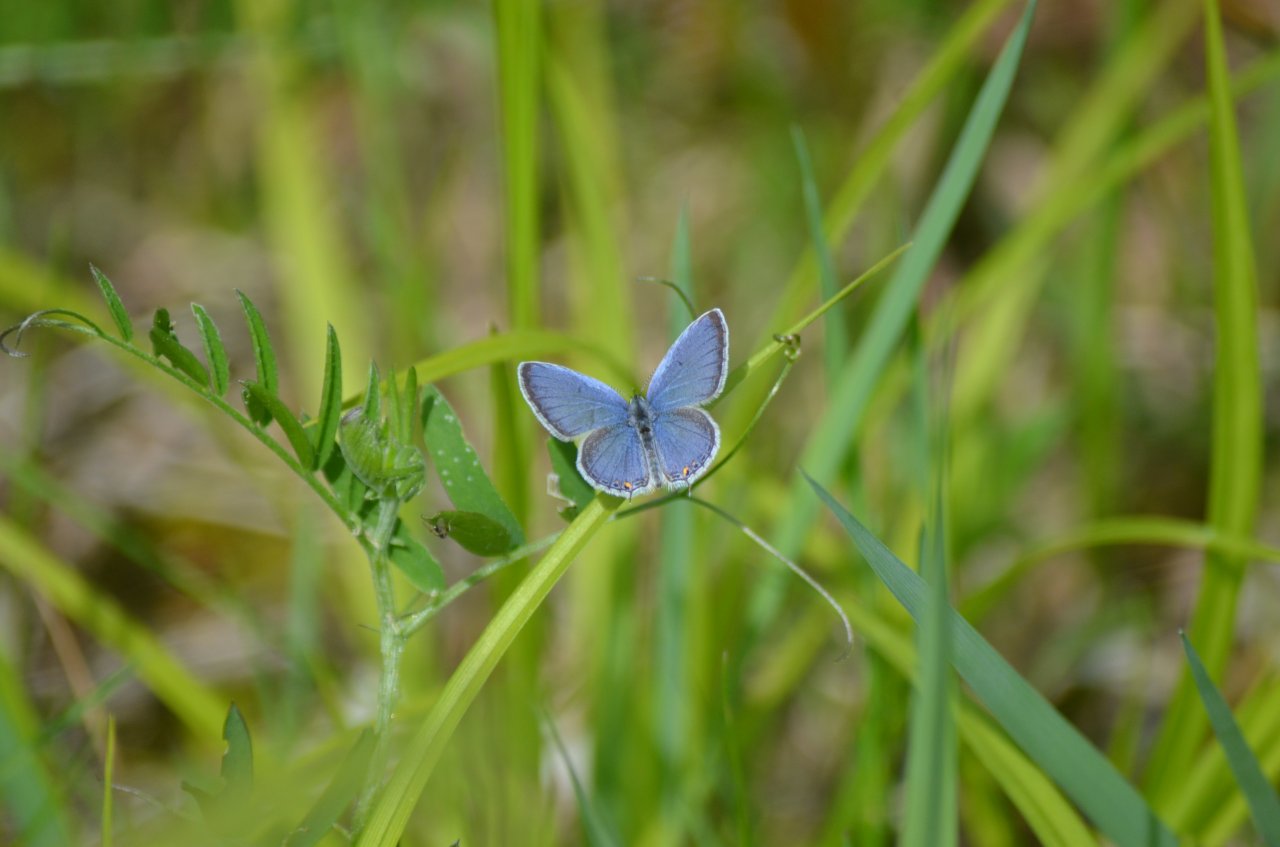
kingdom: Animalia
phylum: Arthropoda
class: Insecta
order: Lepidoptera
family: Lycaenidae
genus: Elkalyce
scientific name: Elkalyce comyntas
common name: Eastern Tailed-Blue
